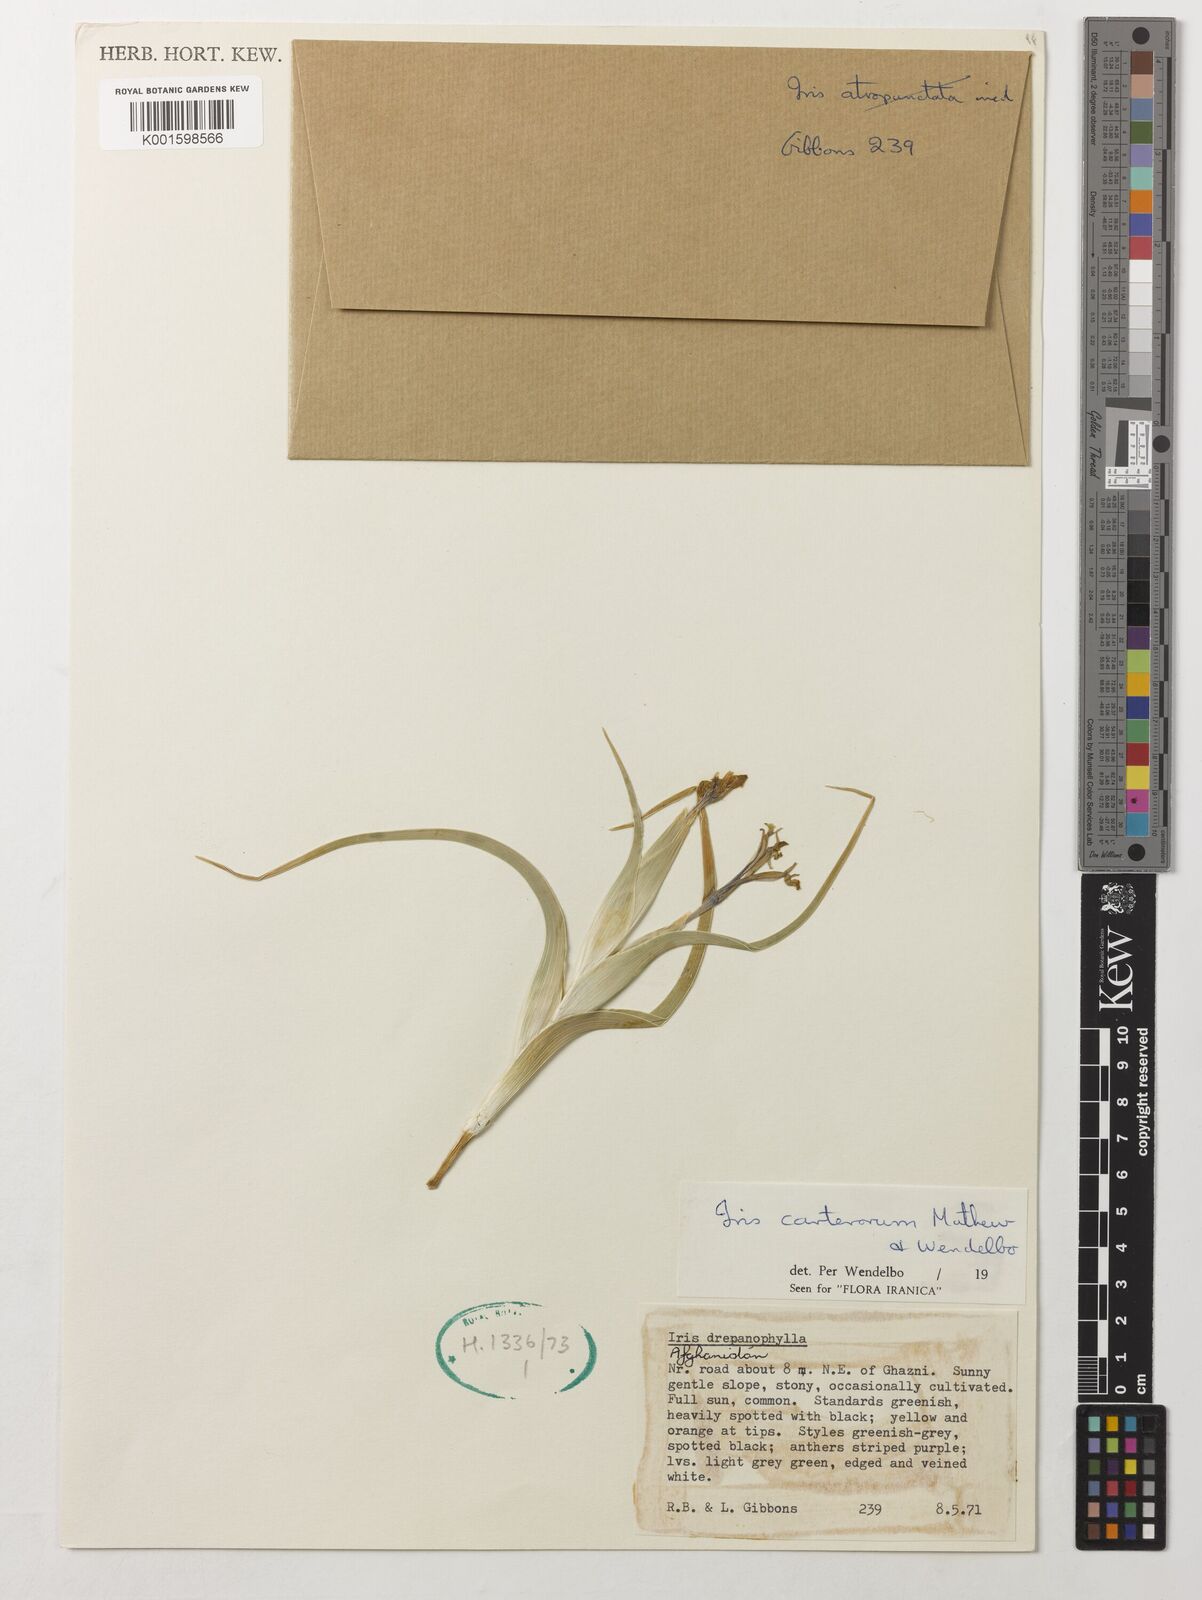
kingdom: Plantae
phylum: Tracheophyta
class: Liliopsida
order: Asparagales
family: Iridaceae
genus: Iris
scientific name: Iris carterorum
